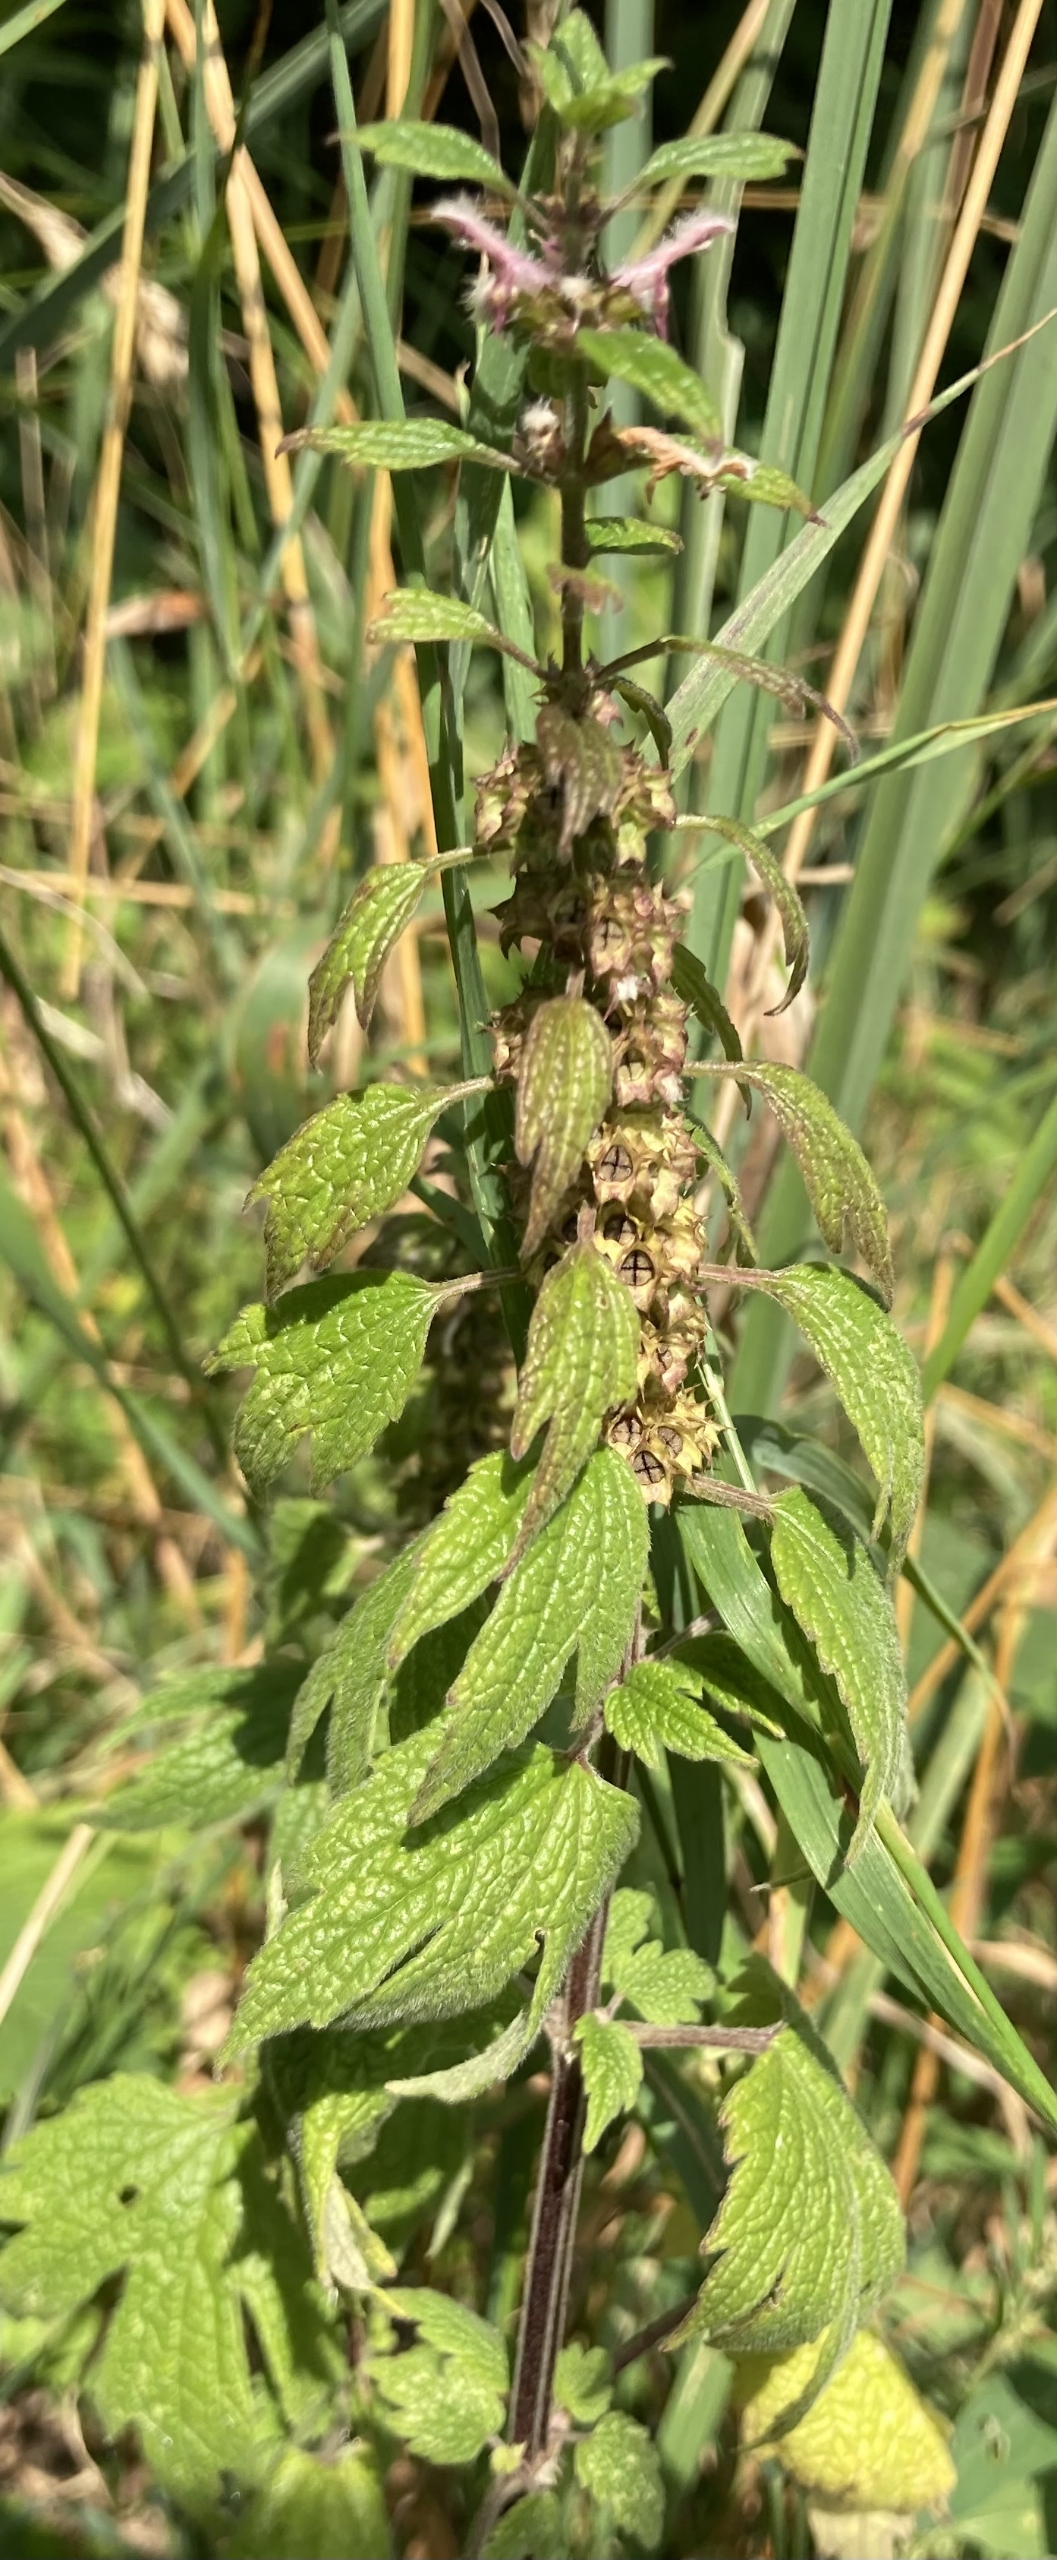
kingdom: Plantae
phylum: Tracheophyta
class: Magnoliopsida
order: Lamiales
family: Lamiaceae
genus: Leonurus
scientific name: Leonurus cardiaca
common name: Hjertespand
